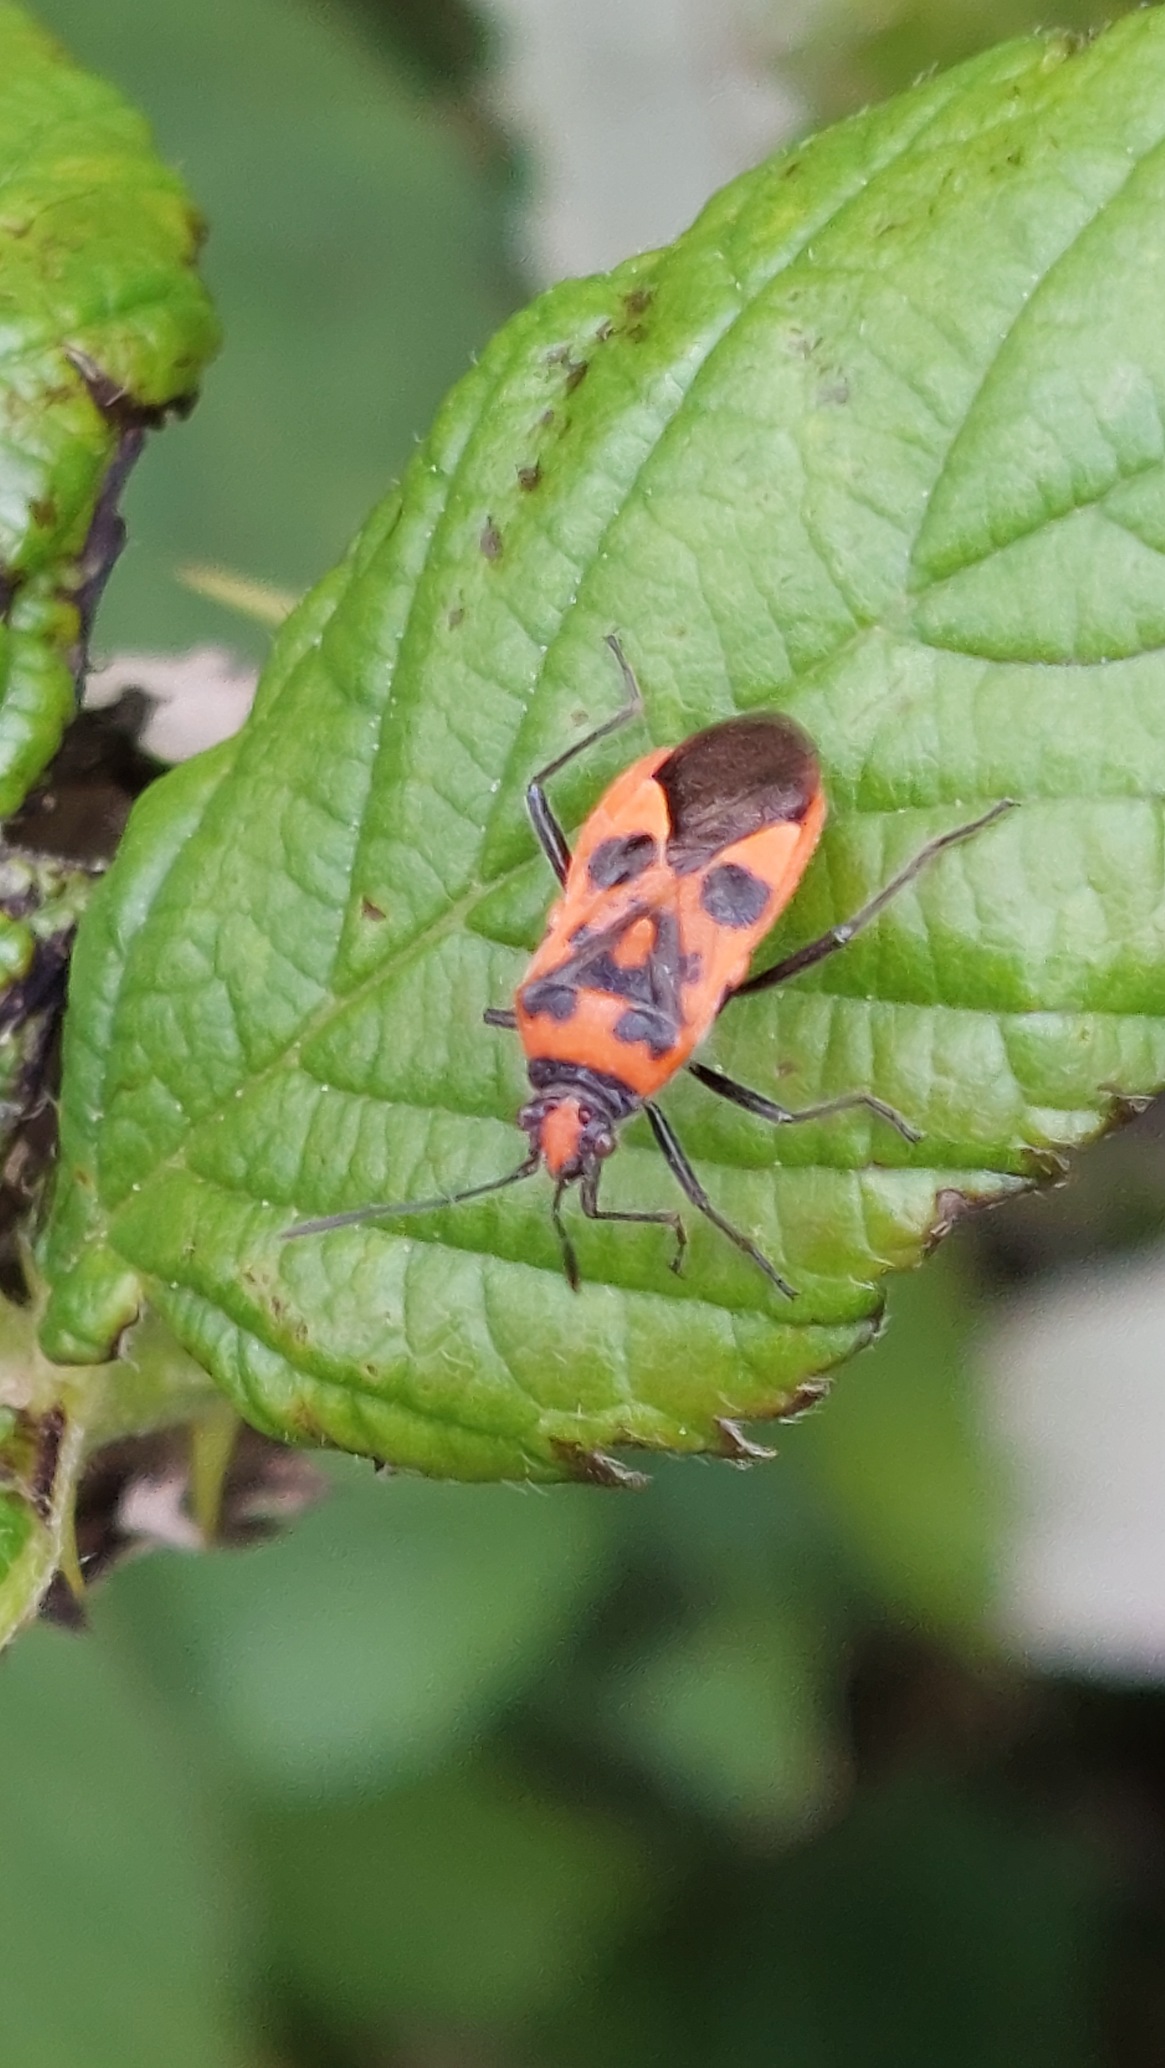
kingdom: Animalia
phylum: Arthropoda
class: Insecta
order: Hemiptera
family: Rhopalidae
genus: Corizus
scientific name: Corizus hyoscyami
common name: Rød kanttæge
